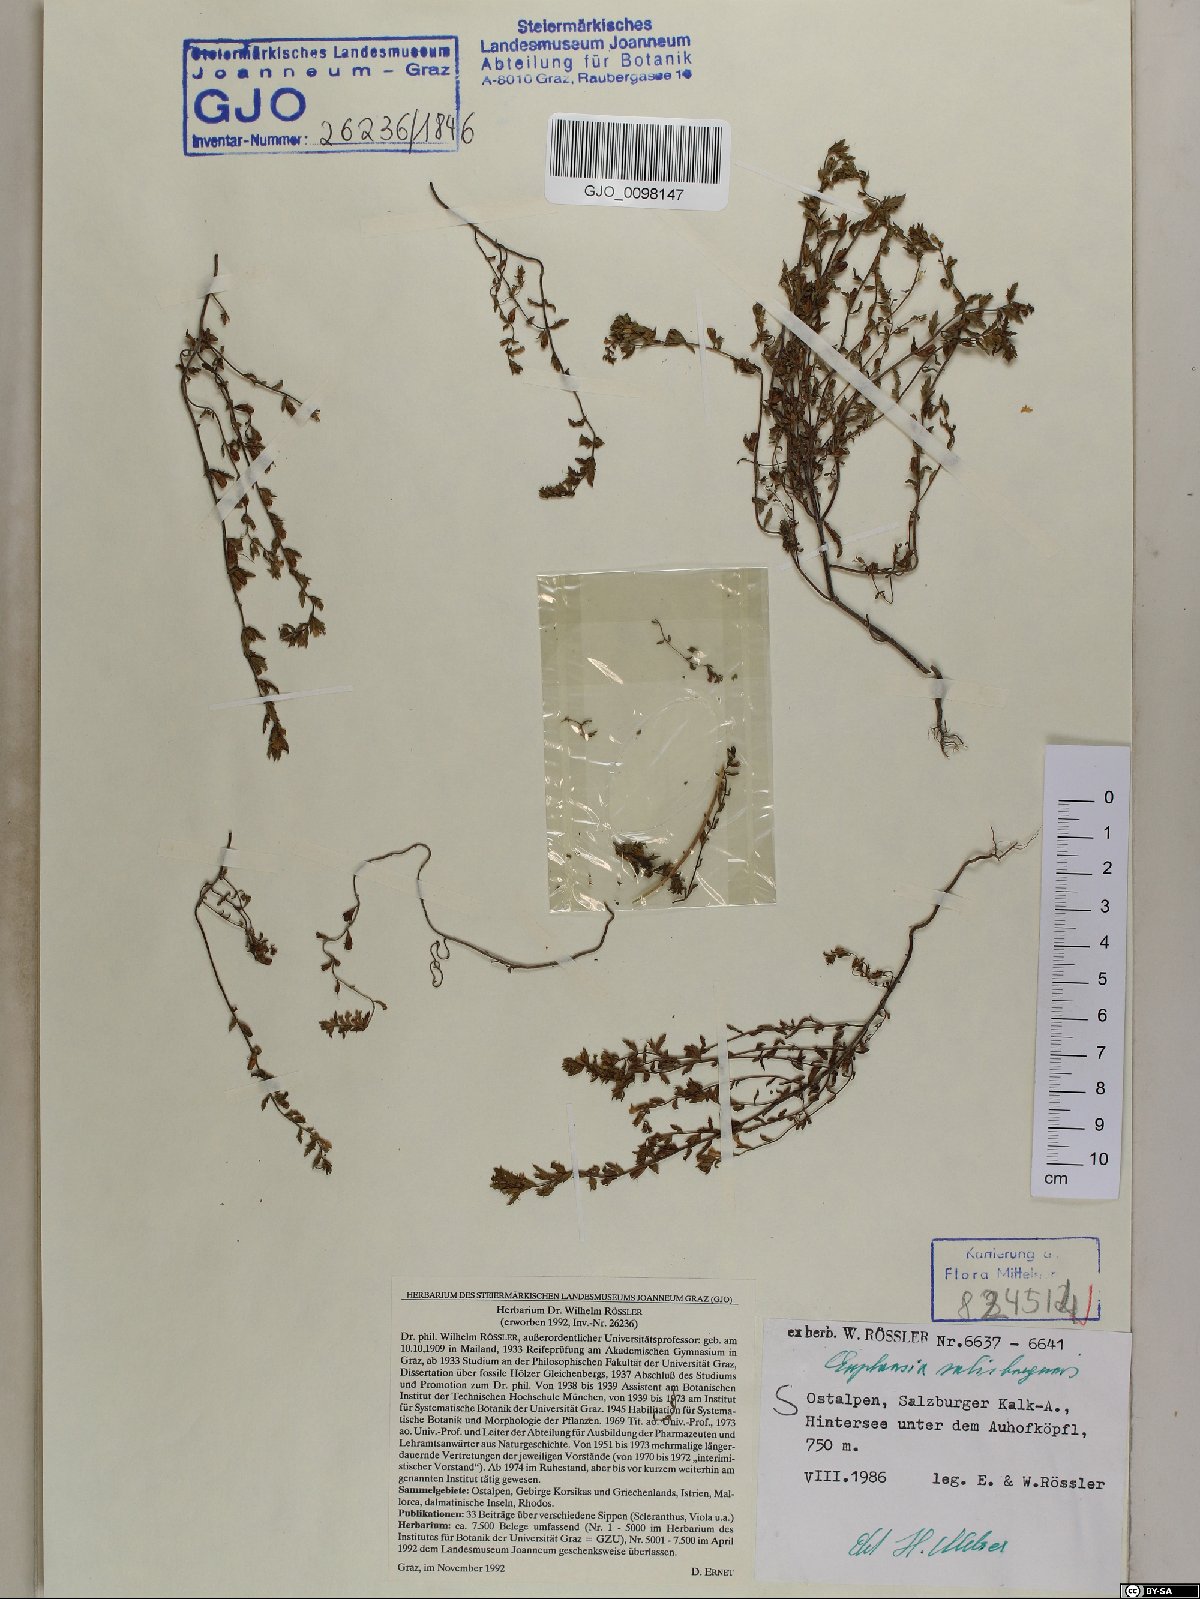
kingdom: Plantae
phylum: Tracheophyta
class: Magnoliopsida
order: Lamiales
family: Orobanchaceae
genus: Euphrasia
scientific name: Euphrasia salisburgensis
